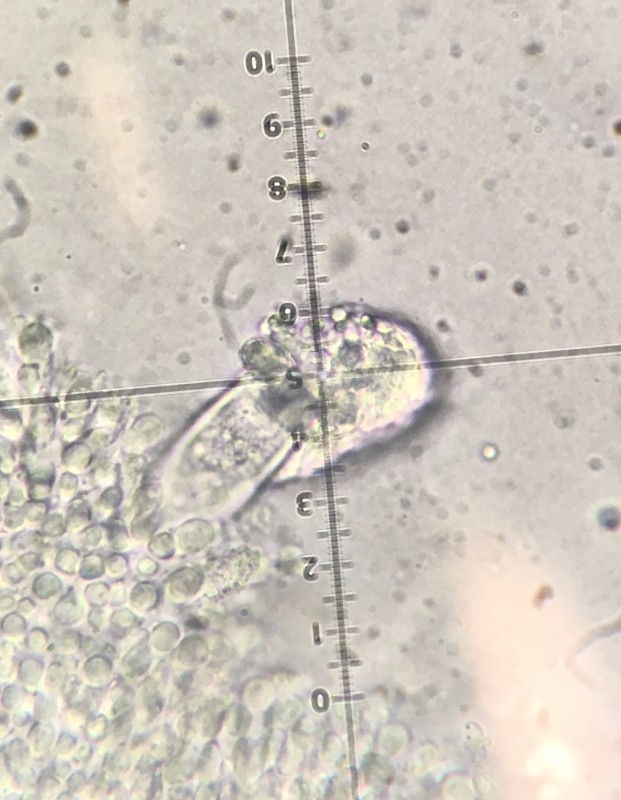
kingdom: Fungi
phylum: Basidiomycota
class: Agaricomycetes
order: Agaricales
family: Physalacriaceae
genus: Strobilurus
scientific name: Strobilurus esculentus
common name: gran-koglehat
